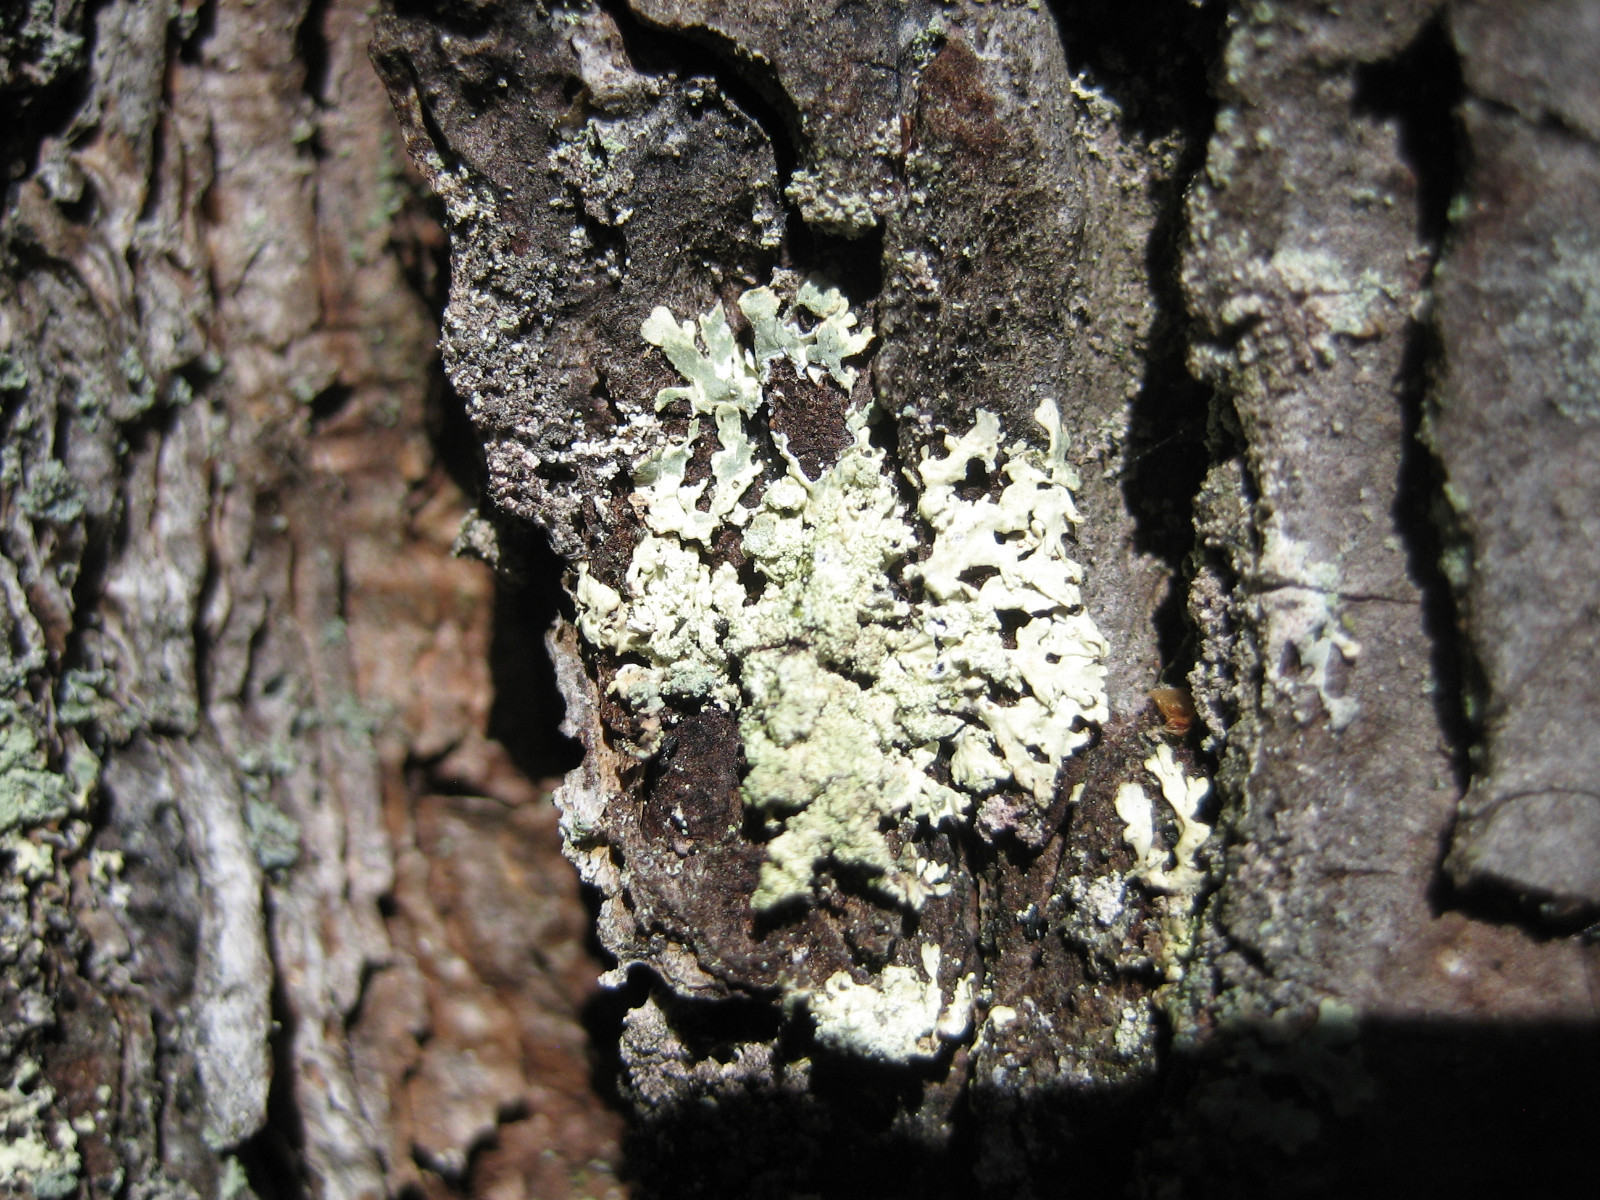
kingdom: Fungi
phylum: Ascomycota
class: Lecanoromycetes
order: Lecanorales
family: Parmeliaceae
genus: Parmeliopsis
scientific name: Parmeliopsis ambigua
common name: gul stolpelav
